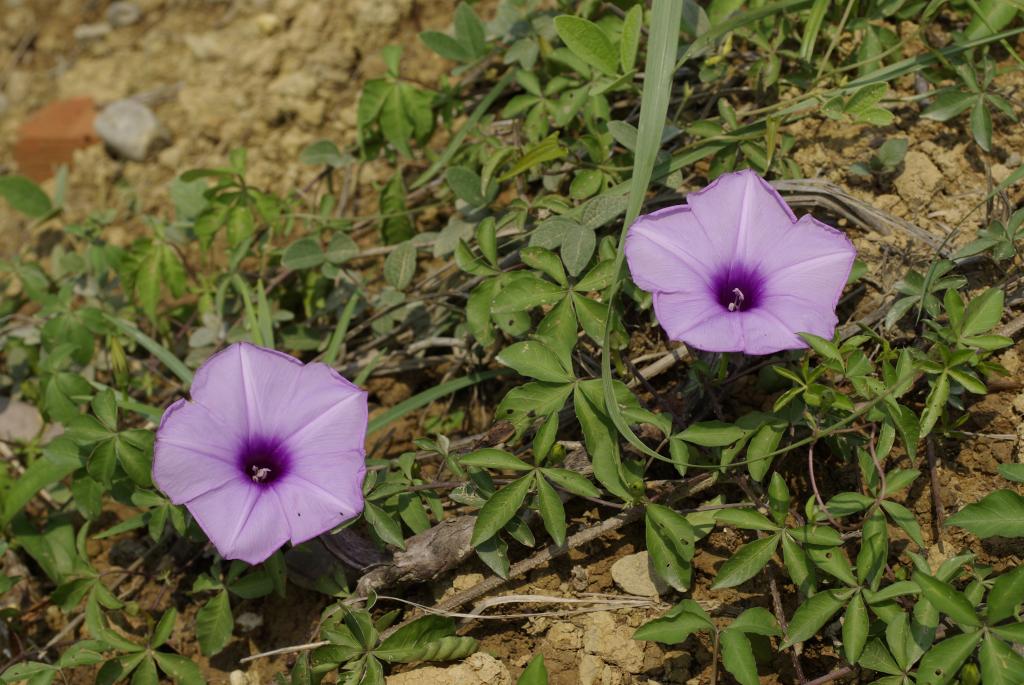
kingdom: Plantae
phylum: Tracheophyta
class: Magnoliopsida
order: Solanales
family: Convolvulaceae
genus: Ipomoea
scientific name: Ipomoea cairica
